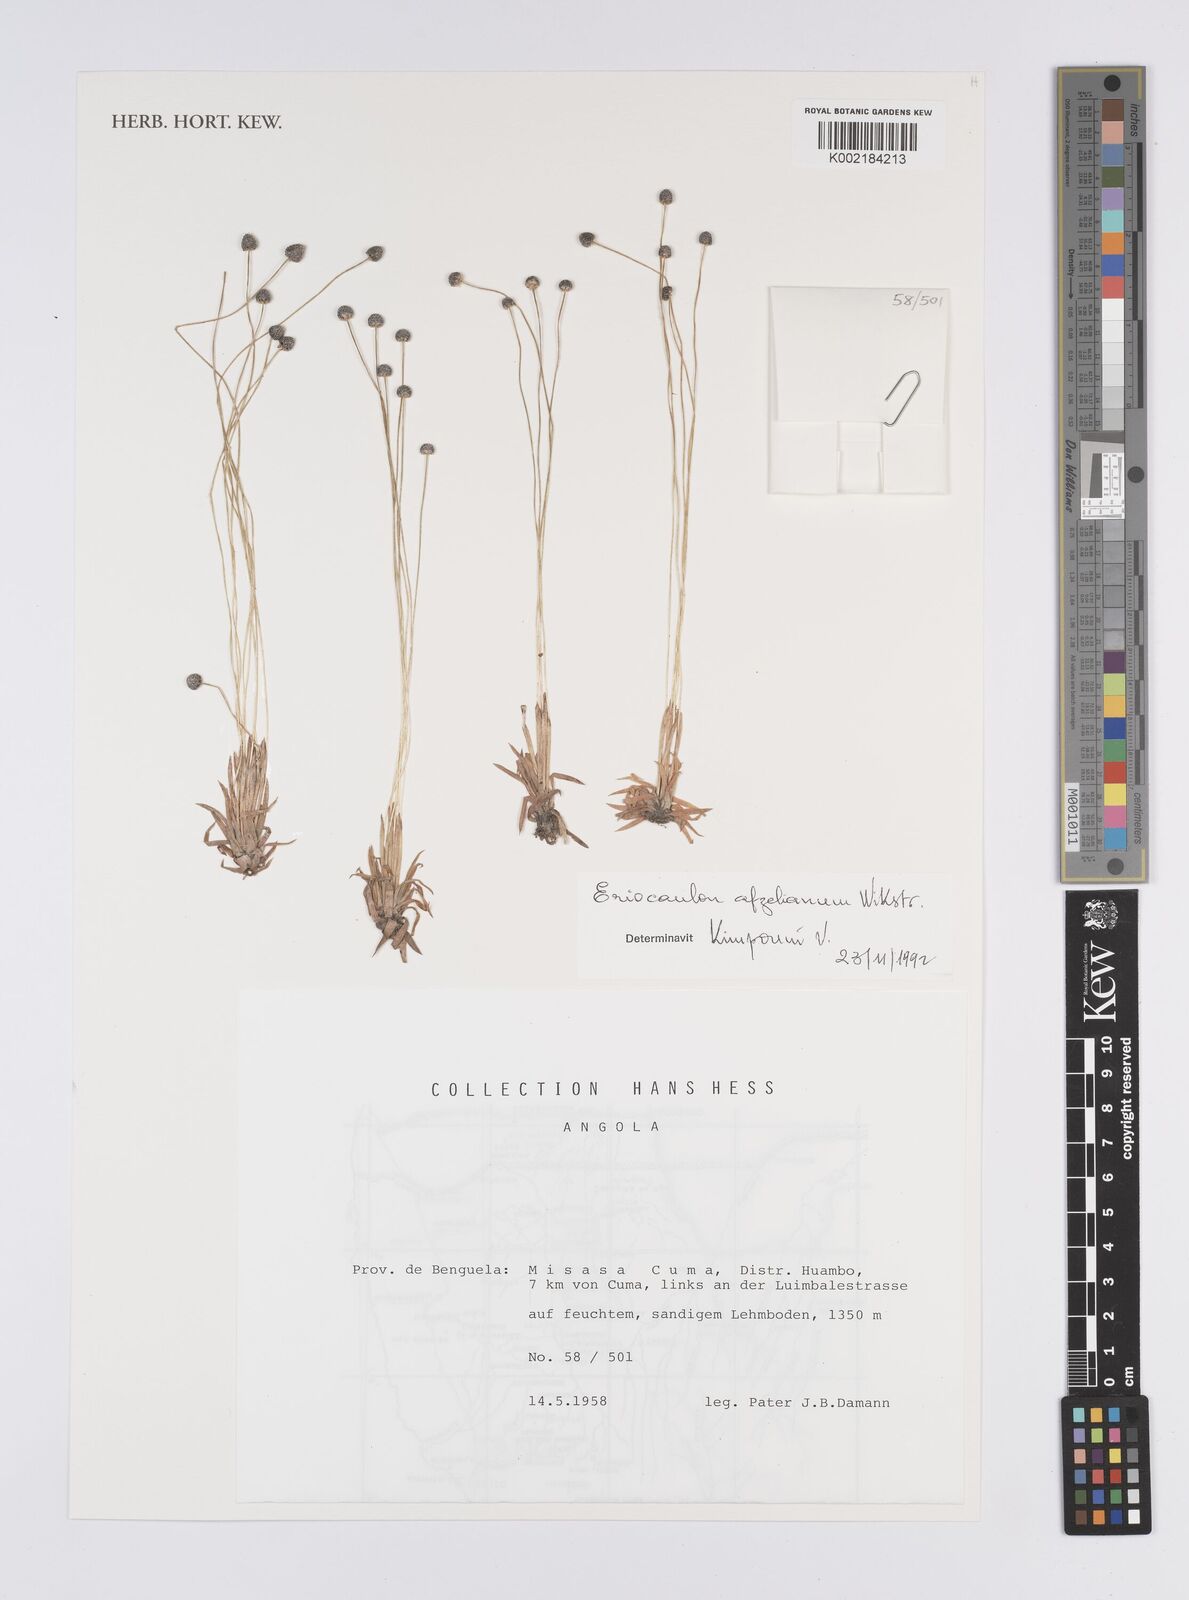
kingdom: Plantae
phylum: Tracheophyta
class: Liliopsida
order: Poales
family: Eriocaulaceae
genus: Eriocaulon
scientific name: Eriocaulon afzelianum
